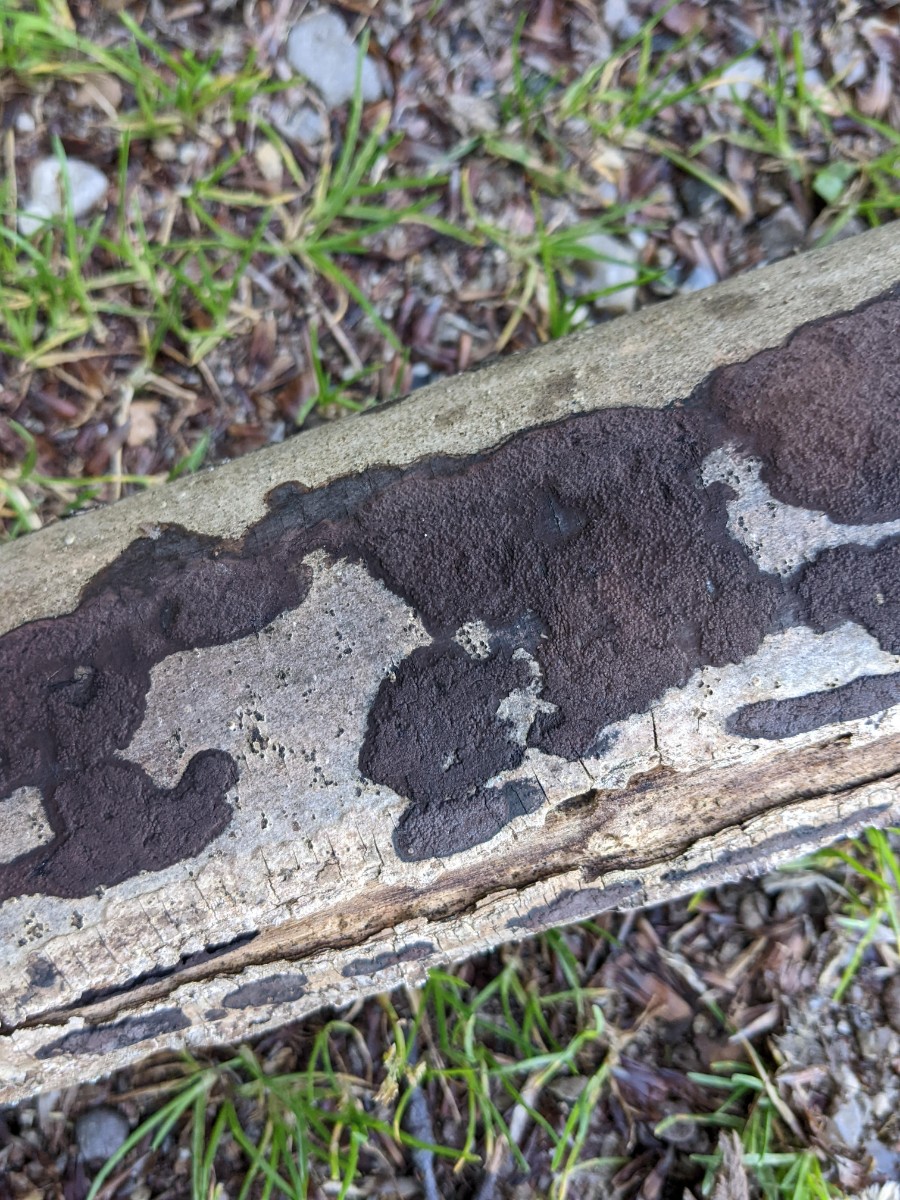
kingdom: Fungi
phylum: Ascomycota
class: Sordariomycetes
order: Xylariales
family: Hypoxylaceae
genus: Hypoxylon
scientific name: Hypoxylon petriniae
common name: nedsænket kulbær
